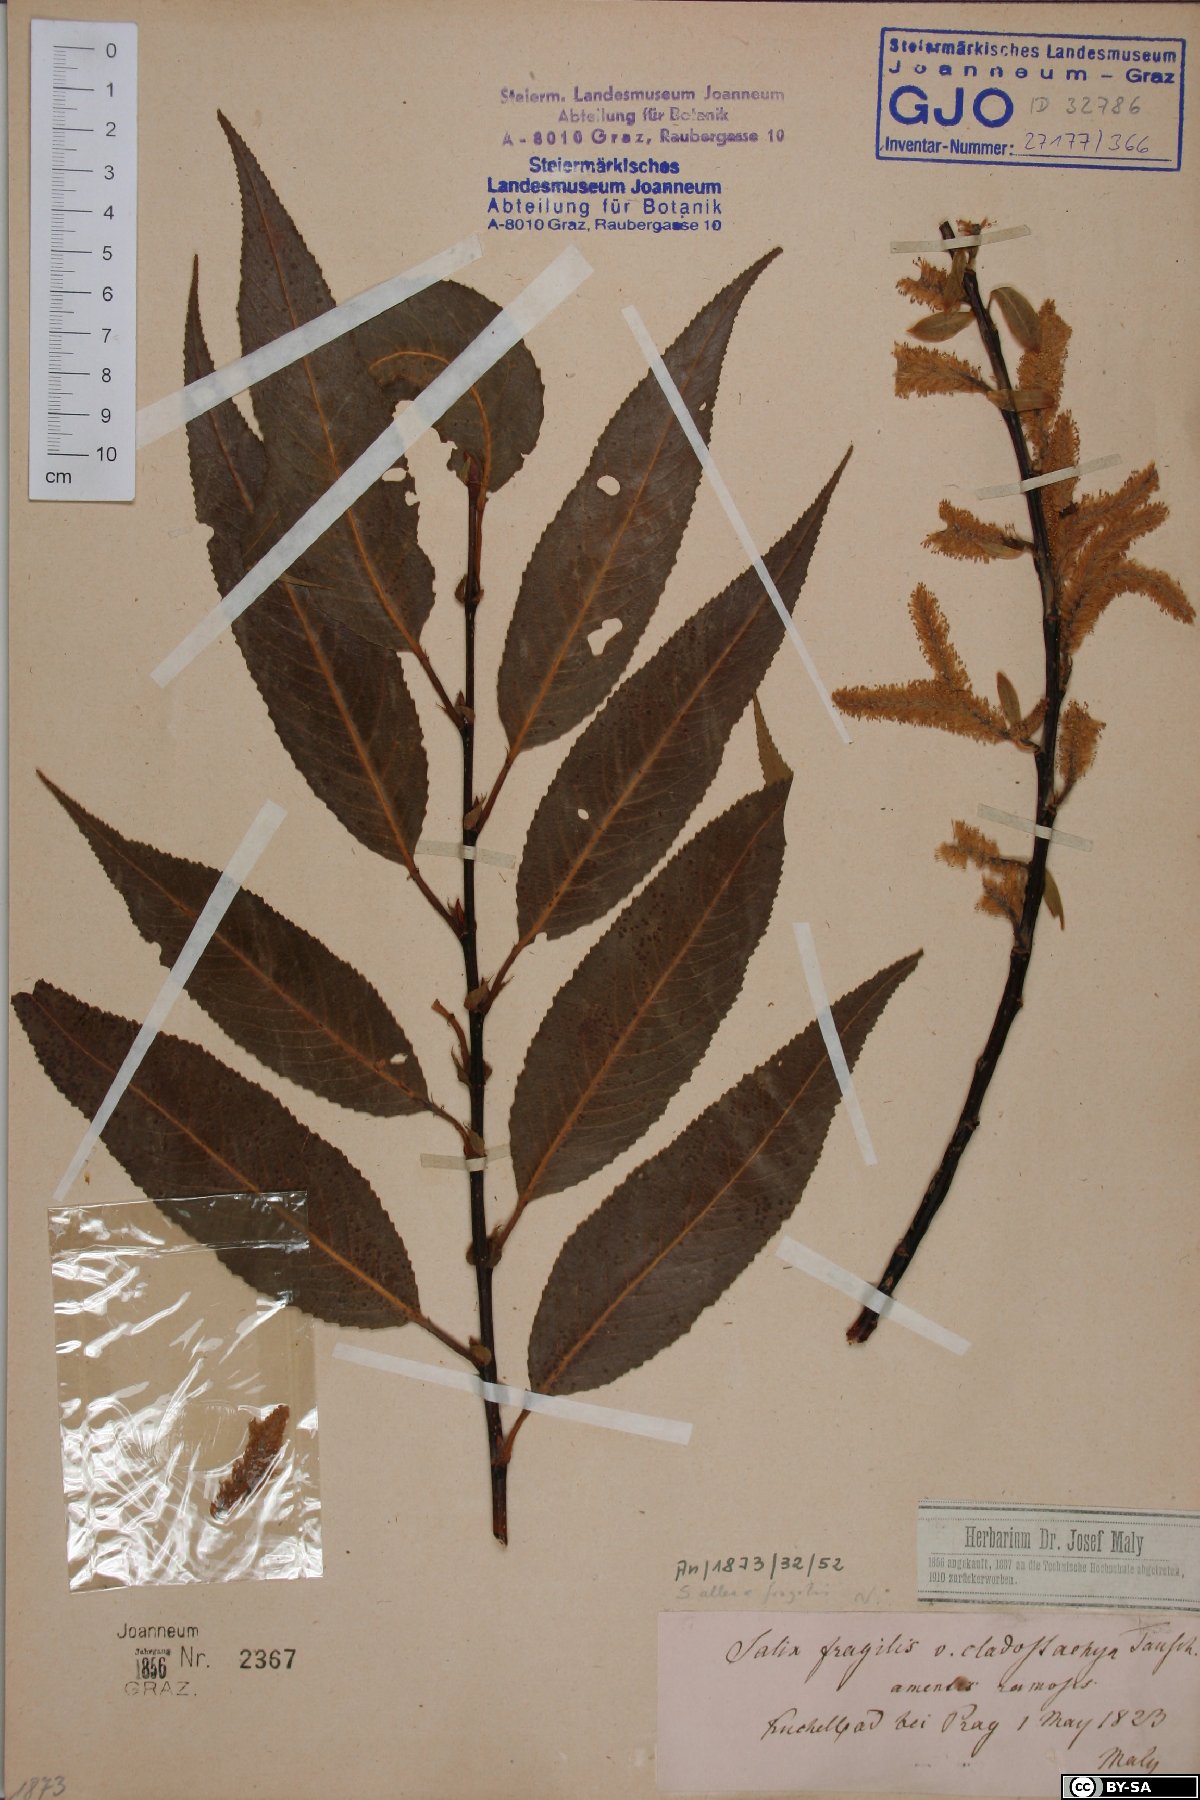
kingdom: Plantae
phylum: Tracheophyta
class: Magnoliopsida
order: Malpighiales
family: Salicaceae
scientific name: Salicaceae
